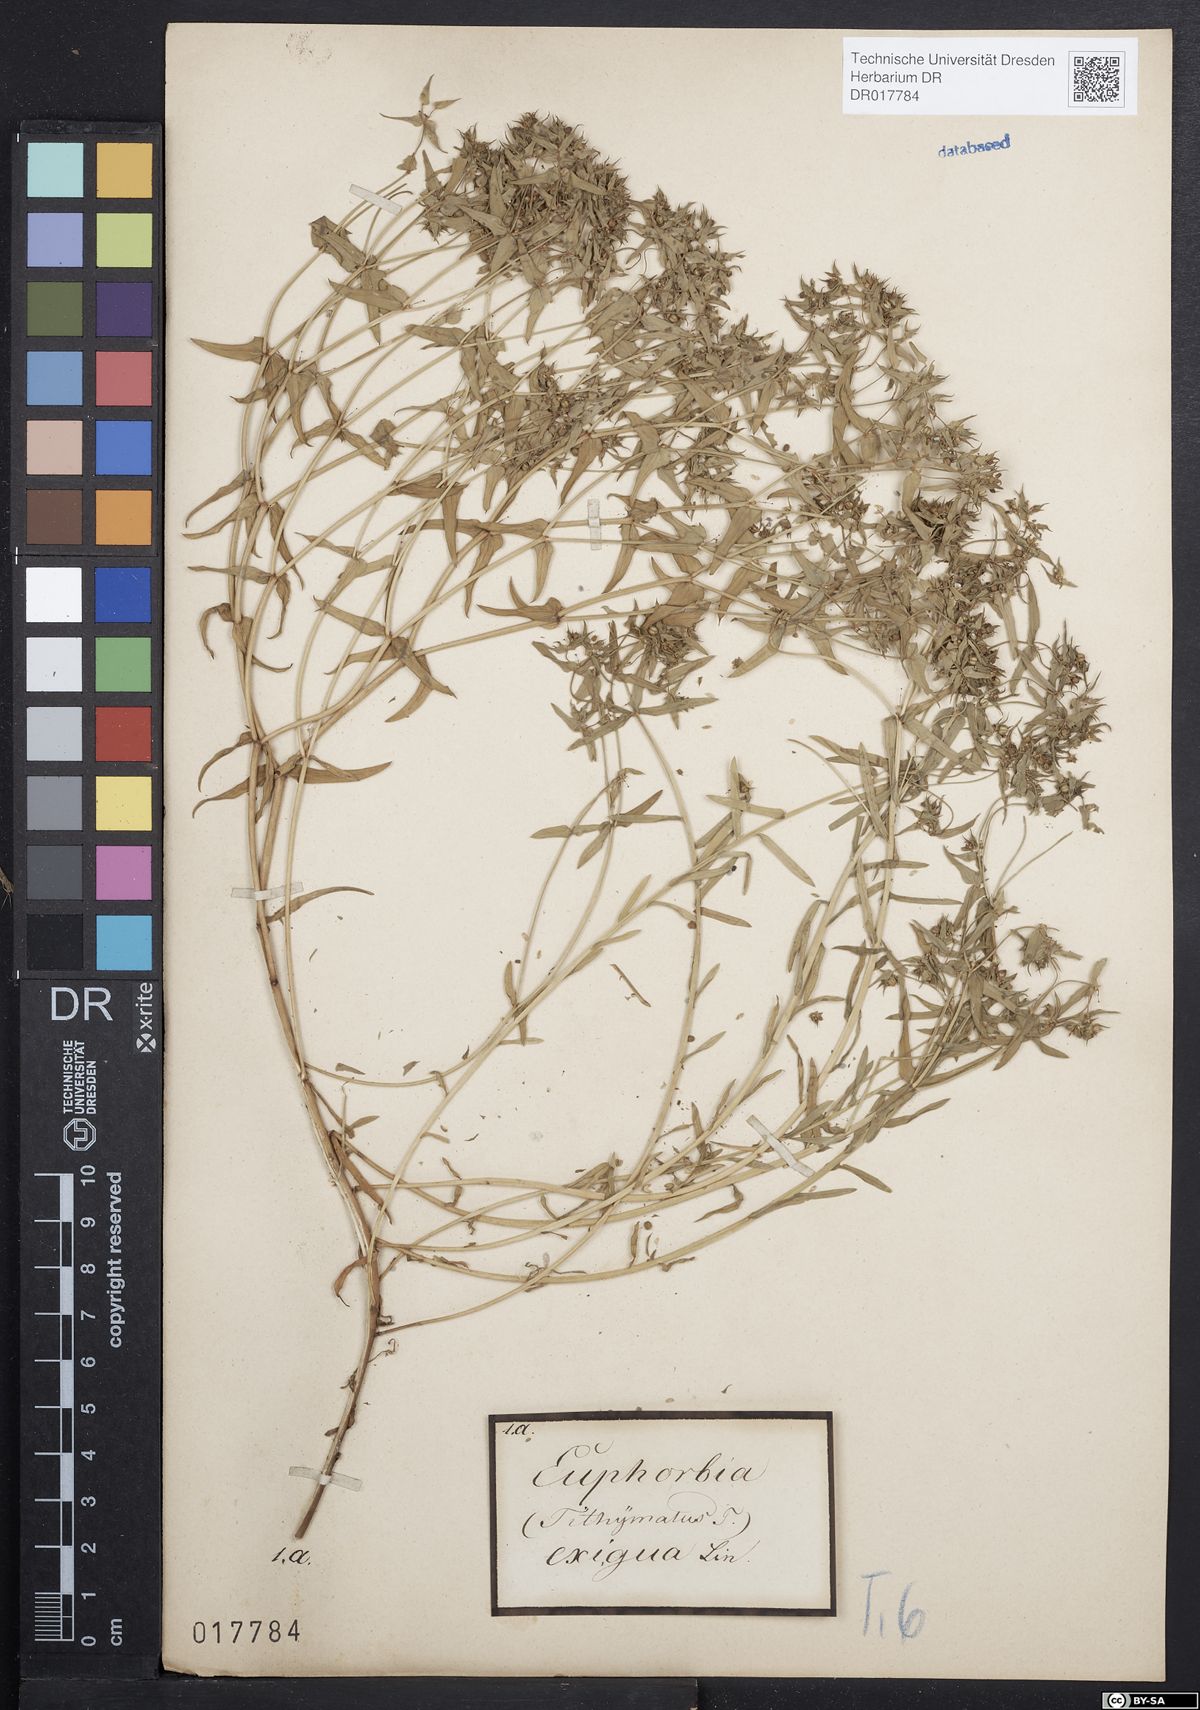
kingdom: Plantae
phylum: Tracheophyta
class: Magnoliopsida
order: Malpighiales
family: Euphorbiaceae
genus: Euphorbia
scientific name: Euphorbia exigua
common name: Dwarf spurge
